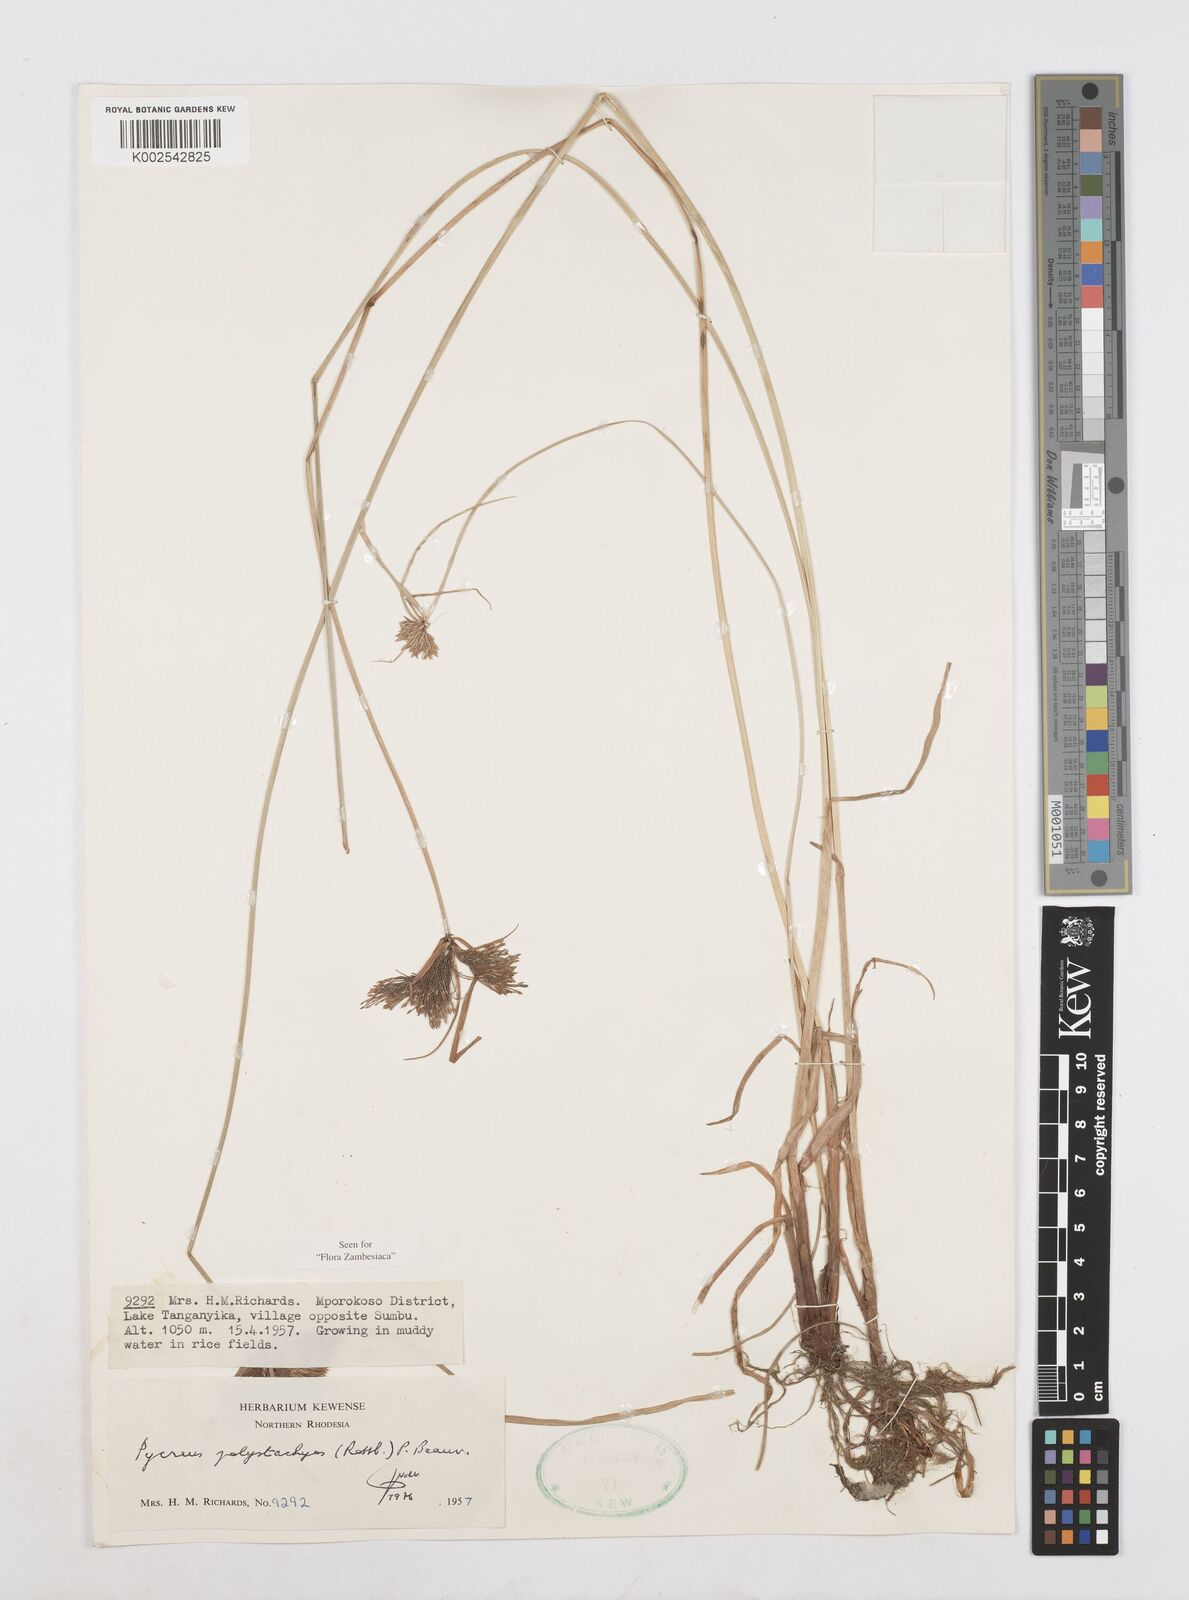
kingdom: Plantae
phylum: Tracheophyta
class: Liliopsida
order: Poales
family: Cyperaceae
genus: Cyperus
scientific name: Cyperus polystachyos
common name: Bunchy flat sedge
